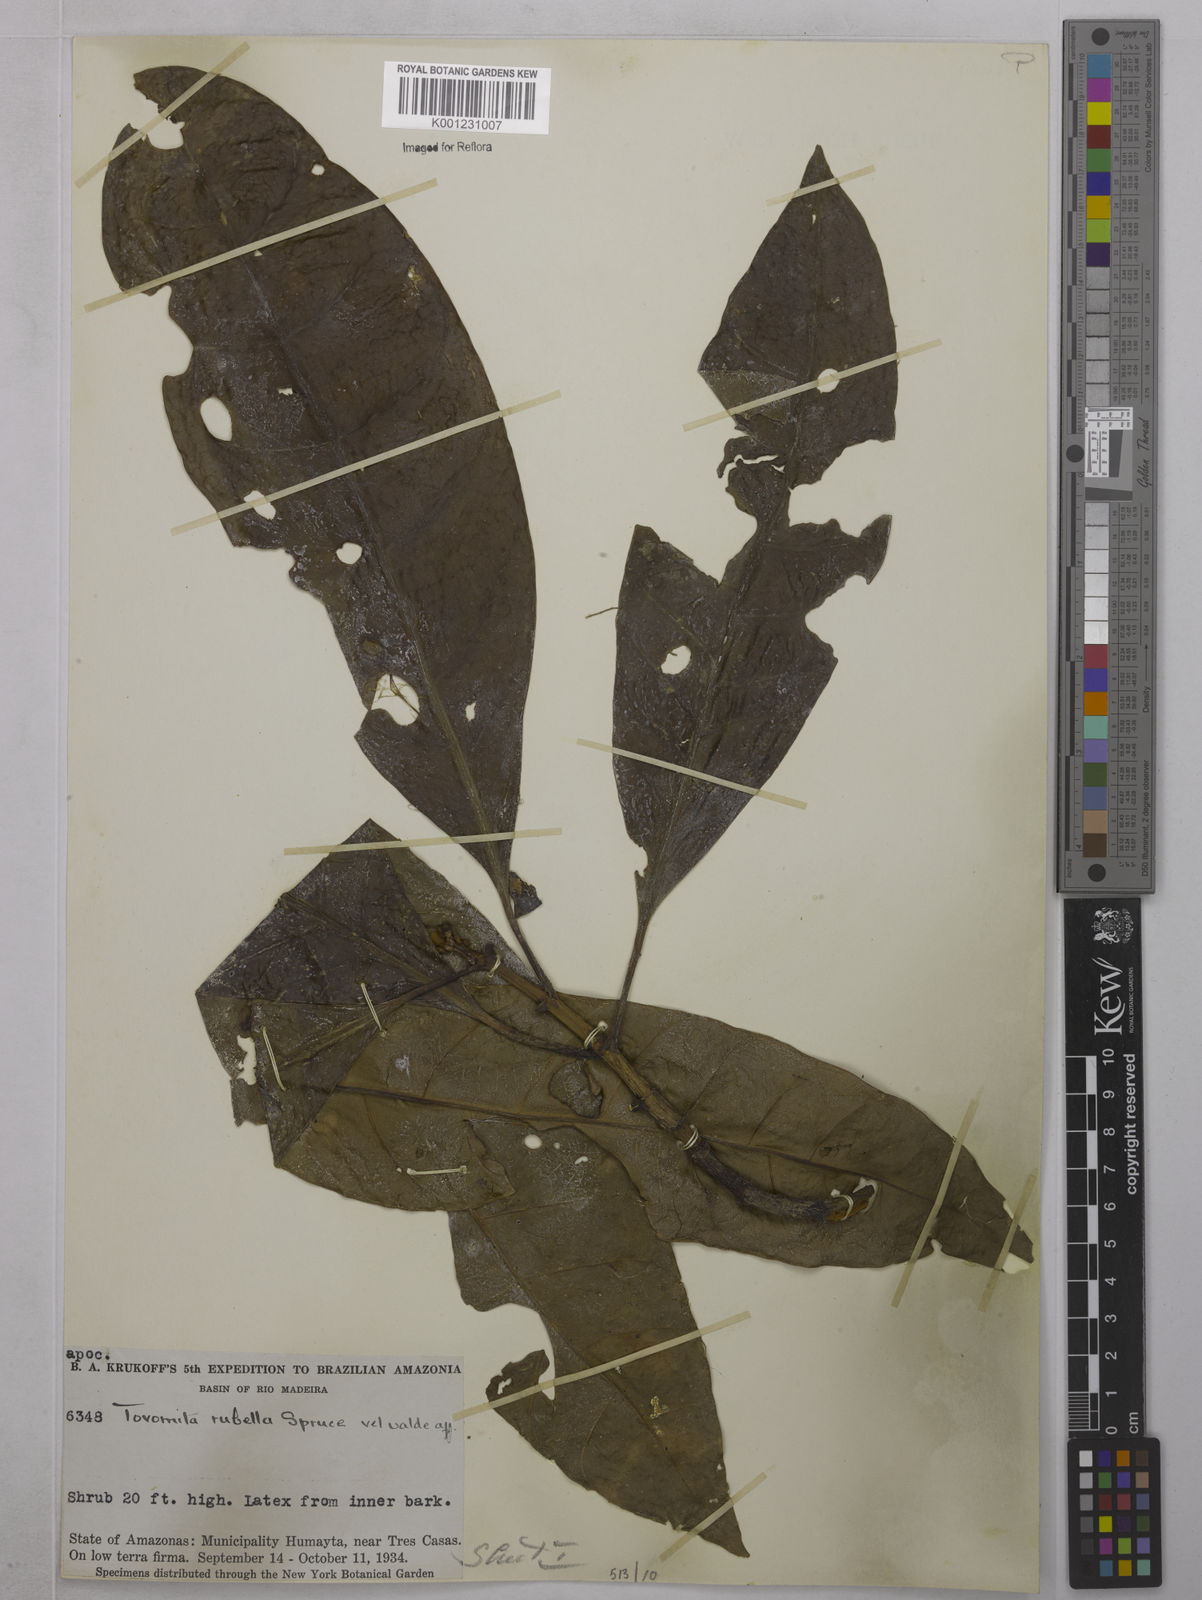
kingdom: Plantae
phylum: Tracheophyta
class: Magnoliopsida
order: Malpighiales
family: Clusiaceae
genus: Tovomita
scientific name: Tovomita rubella
